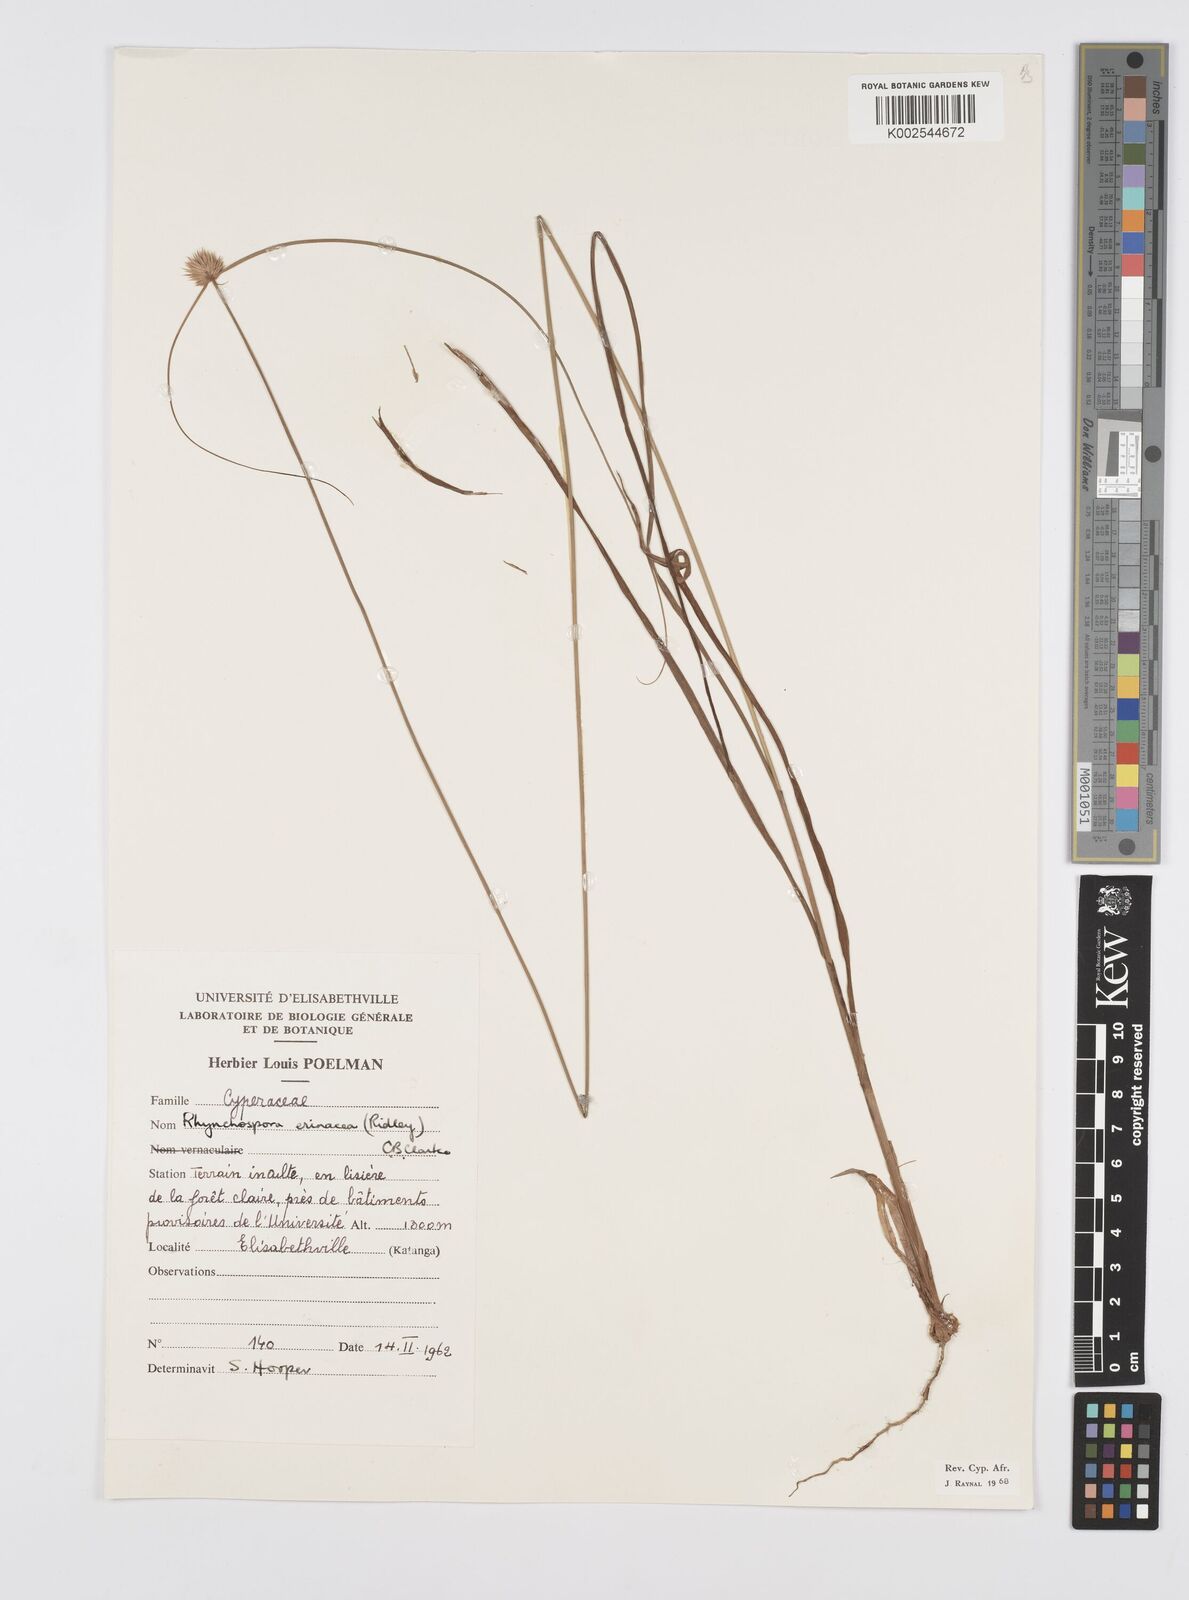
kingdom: Plantae
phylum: Tracheophyta
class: Liliopsida
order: Poales
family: Cyperaceae
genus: Cyperus
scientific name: Cyperus erinaceus
